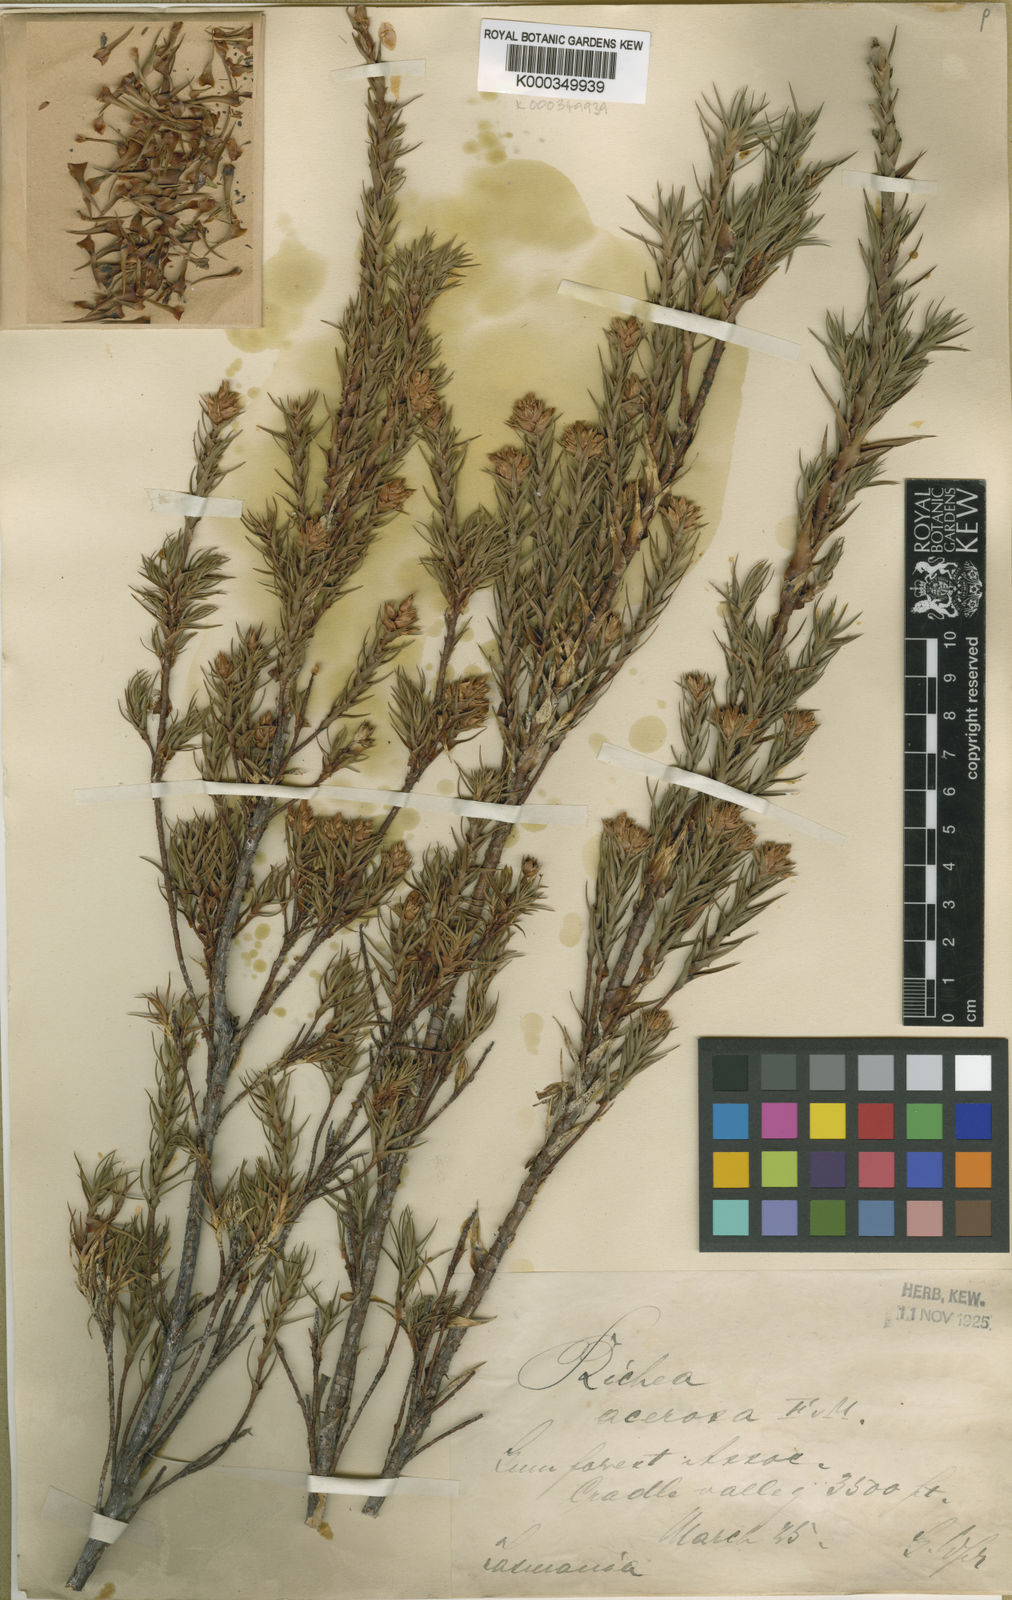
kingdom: Plantae
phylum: Tracheophyta
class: Magnoliopsida
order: Ericales
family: Ericaceae
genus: Dracophyllum
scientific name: Dracophyllum laciniatum
